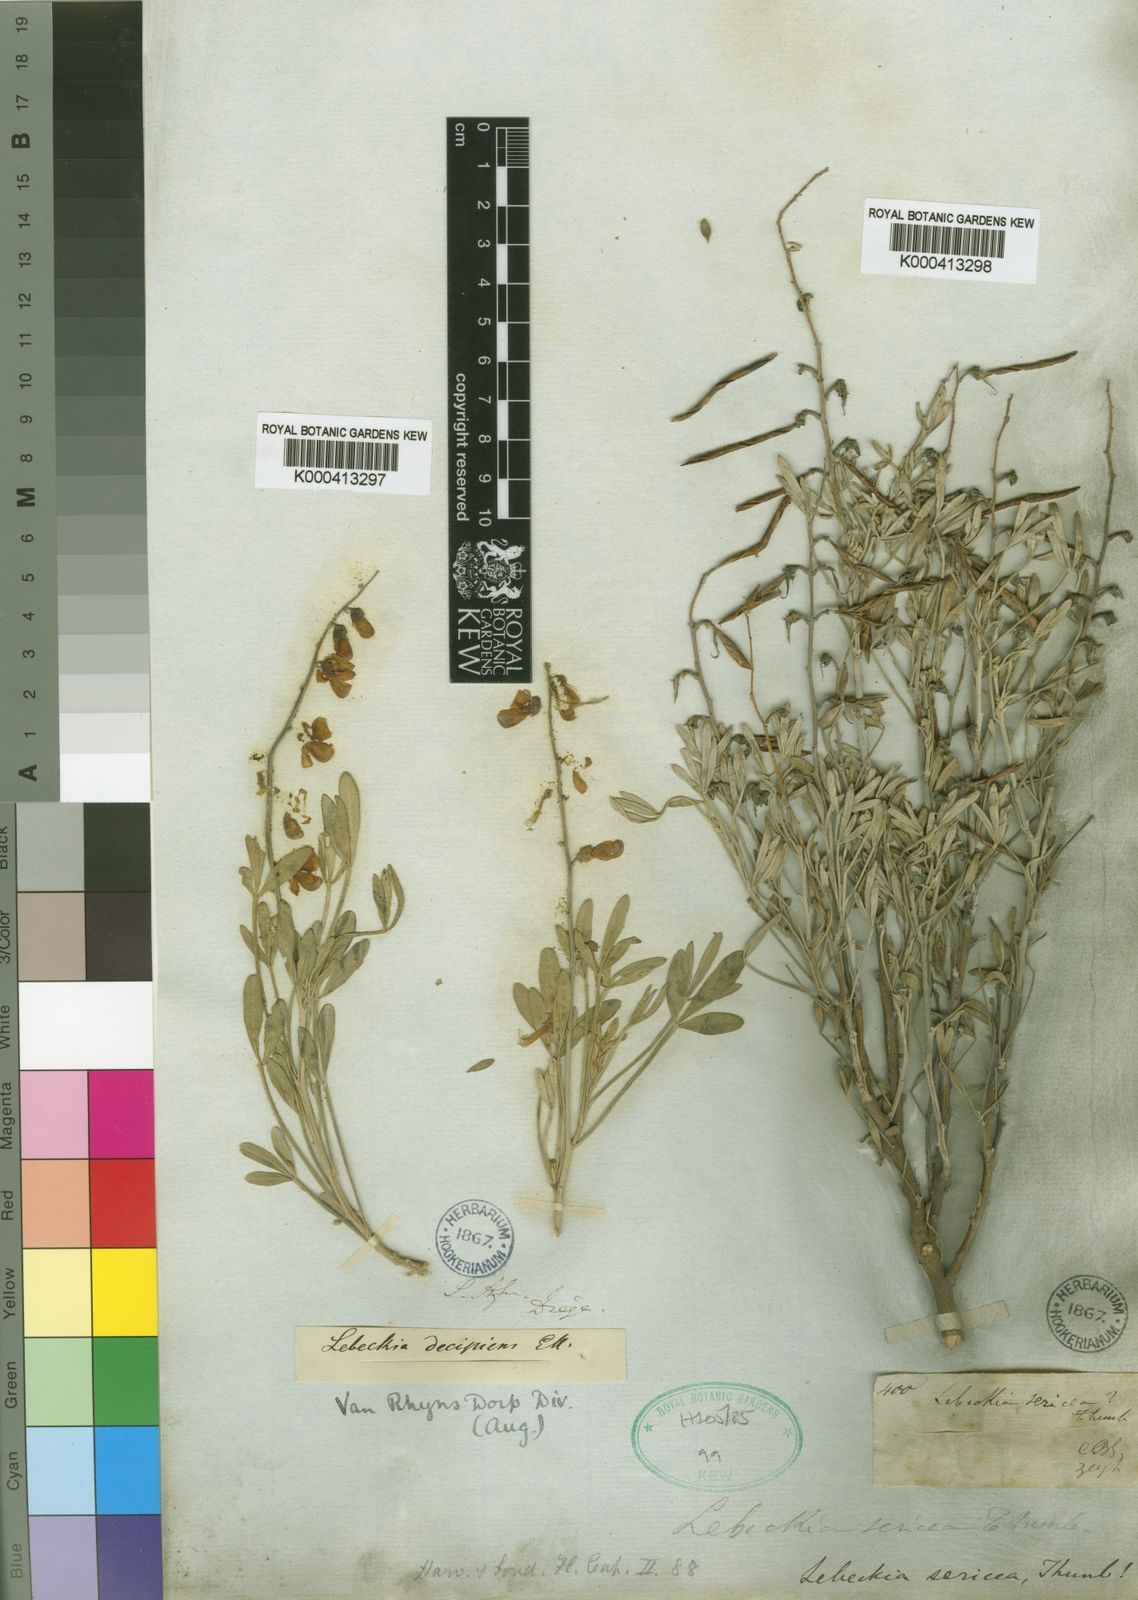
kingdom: Plantae
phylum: Tracheophyta
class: Magnoliopsida
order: Fabales
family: Fabaceae
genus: Calobota
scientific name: Calobota sericea
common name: Silver-pea
